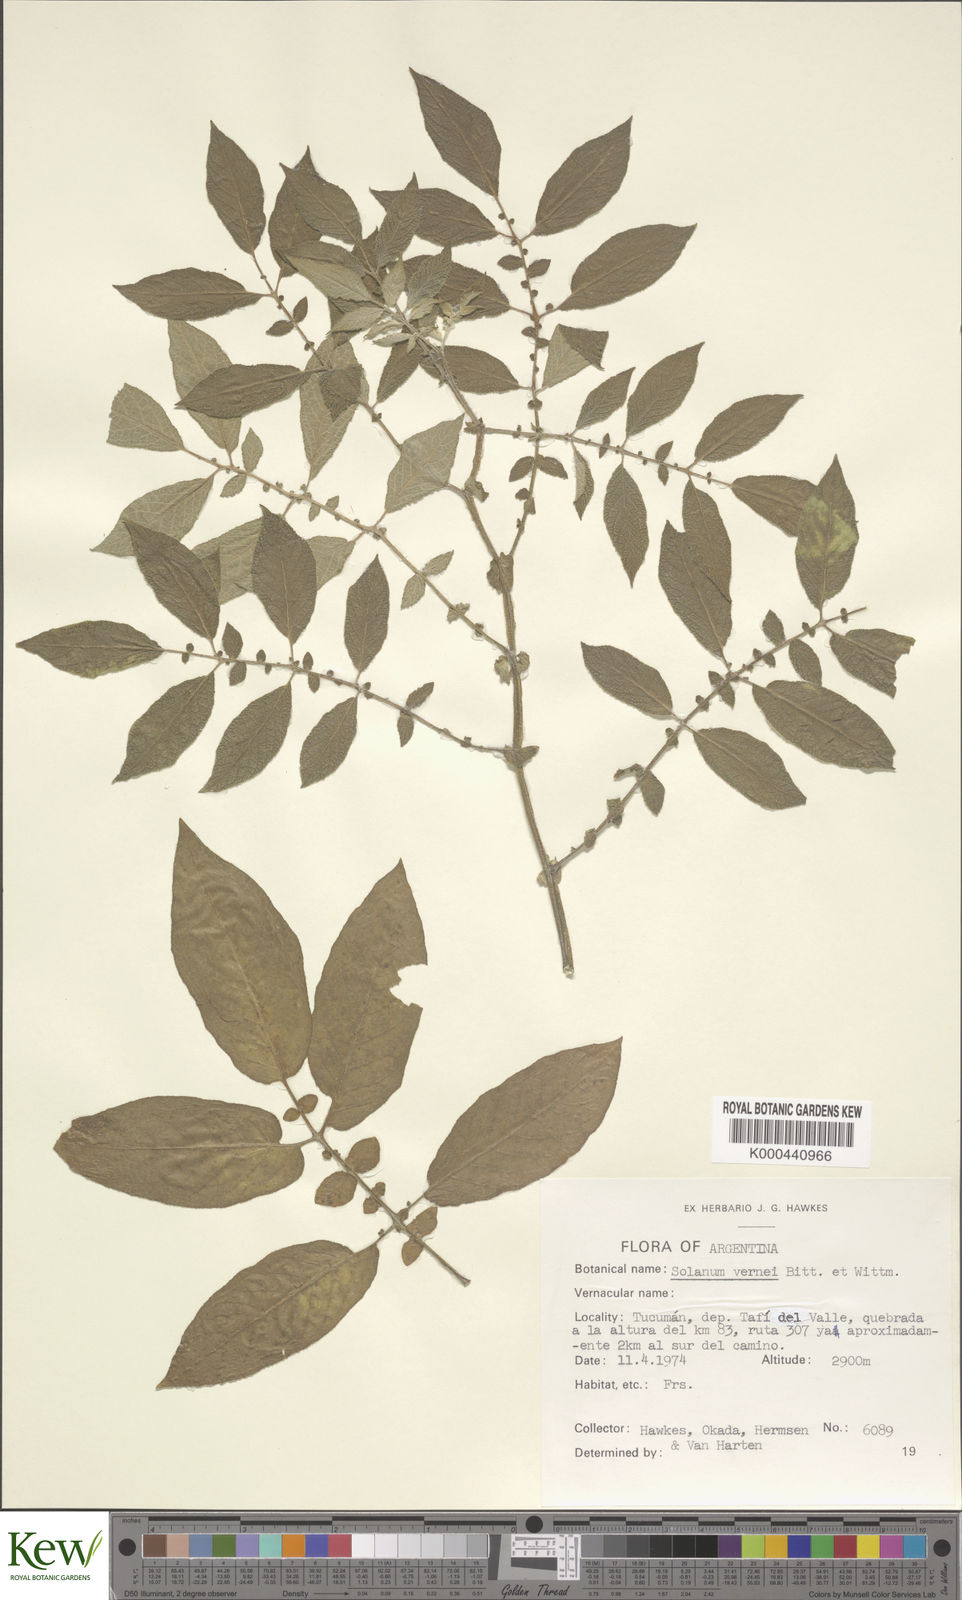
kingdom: Plantae
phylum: Tracheophyta
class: Magnoliopsida
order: Solanales
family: Solanaceae
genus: Solanum
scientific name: Solanum vernei
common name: Purple potato
